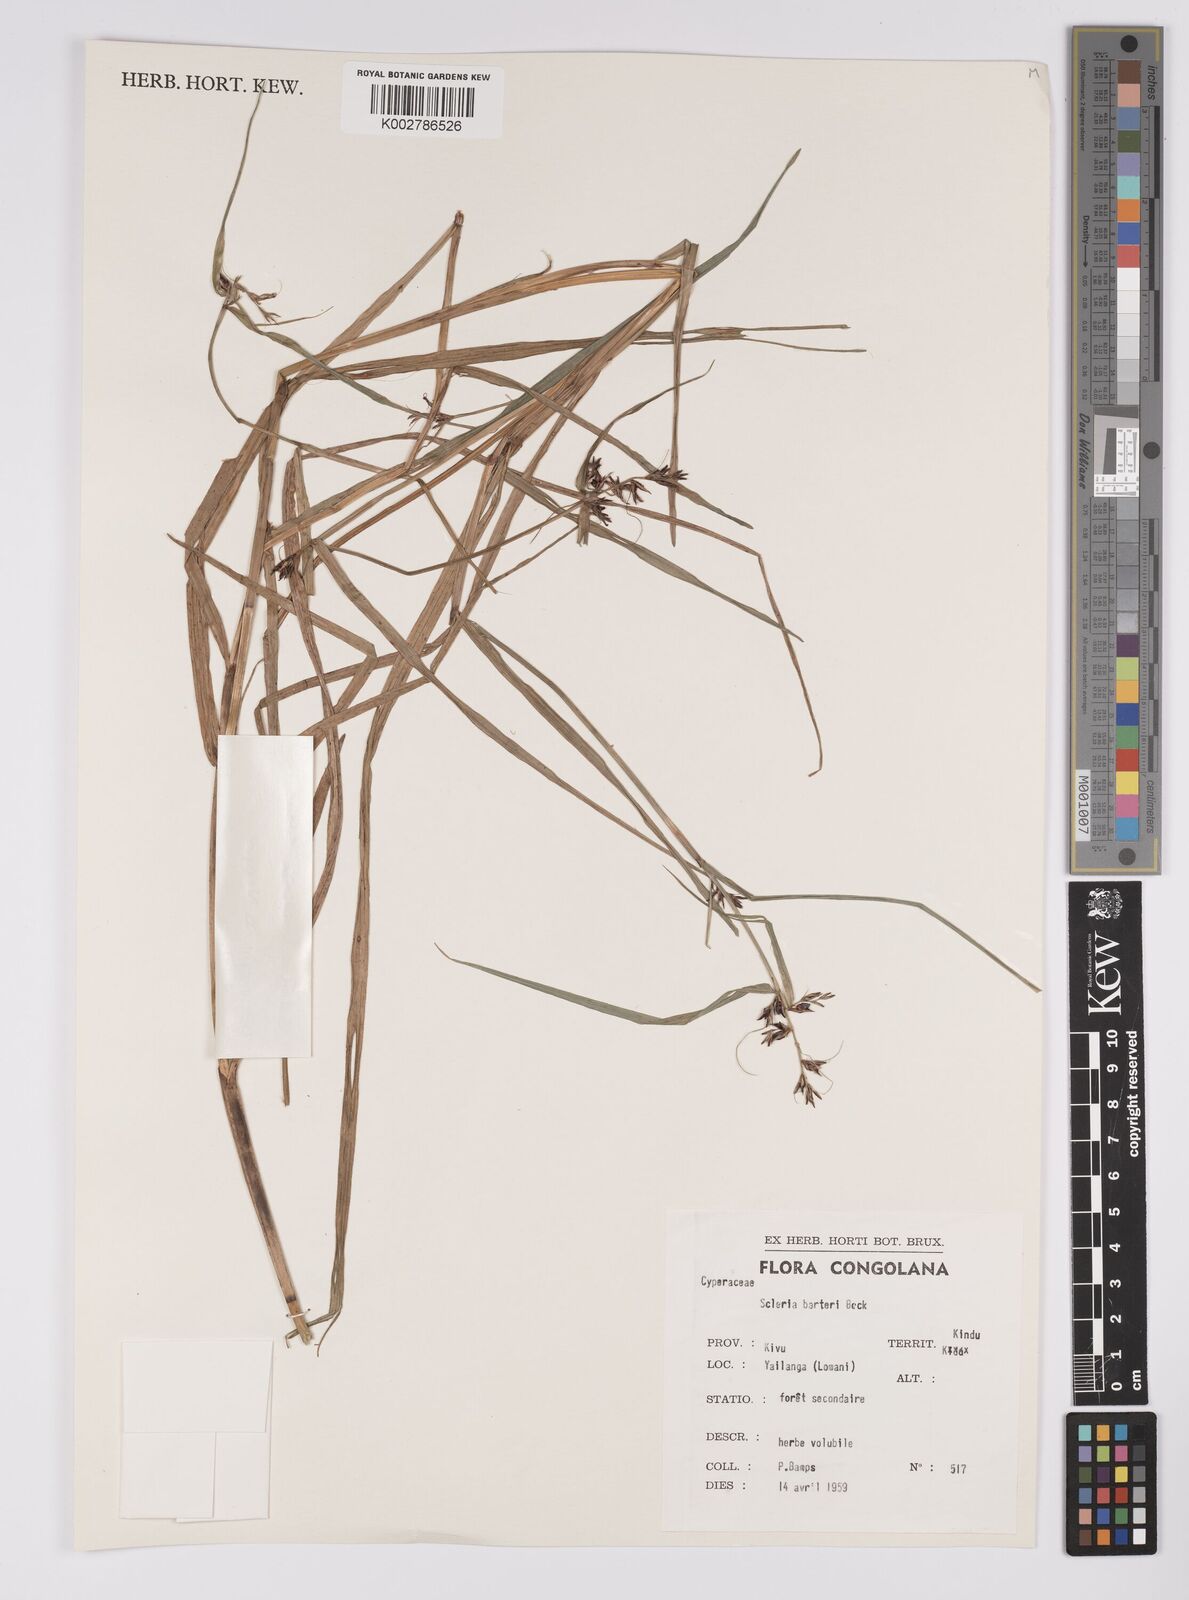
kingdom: Plantae
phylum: Tracheophyta
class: Liliopsida
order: Poales
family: Cyperaceae
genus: Scleria
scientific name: Scleria boivinii
